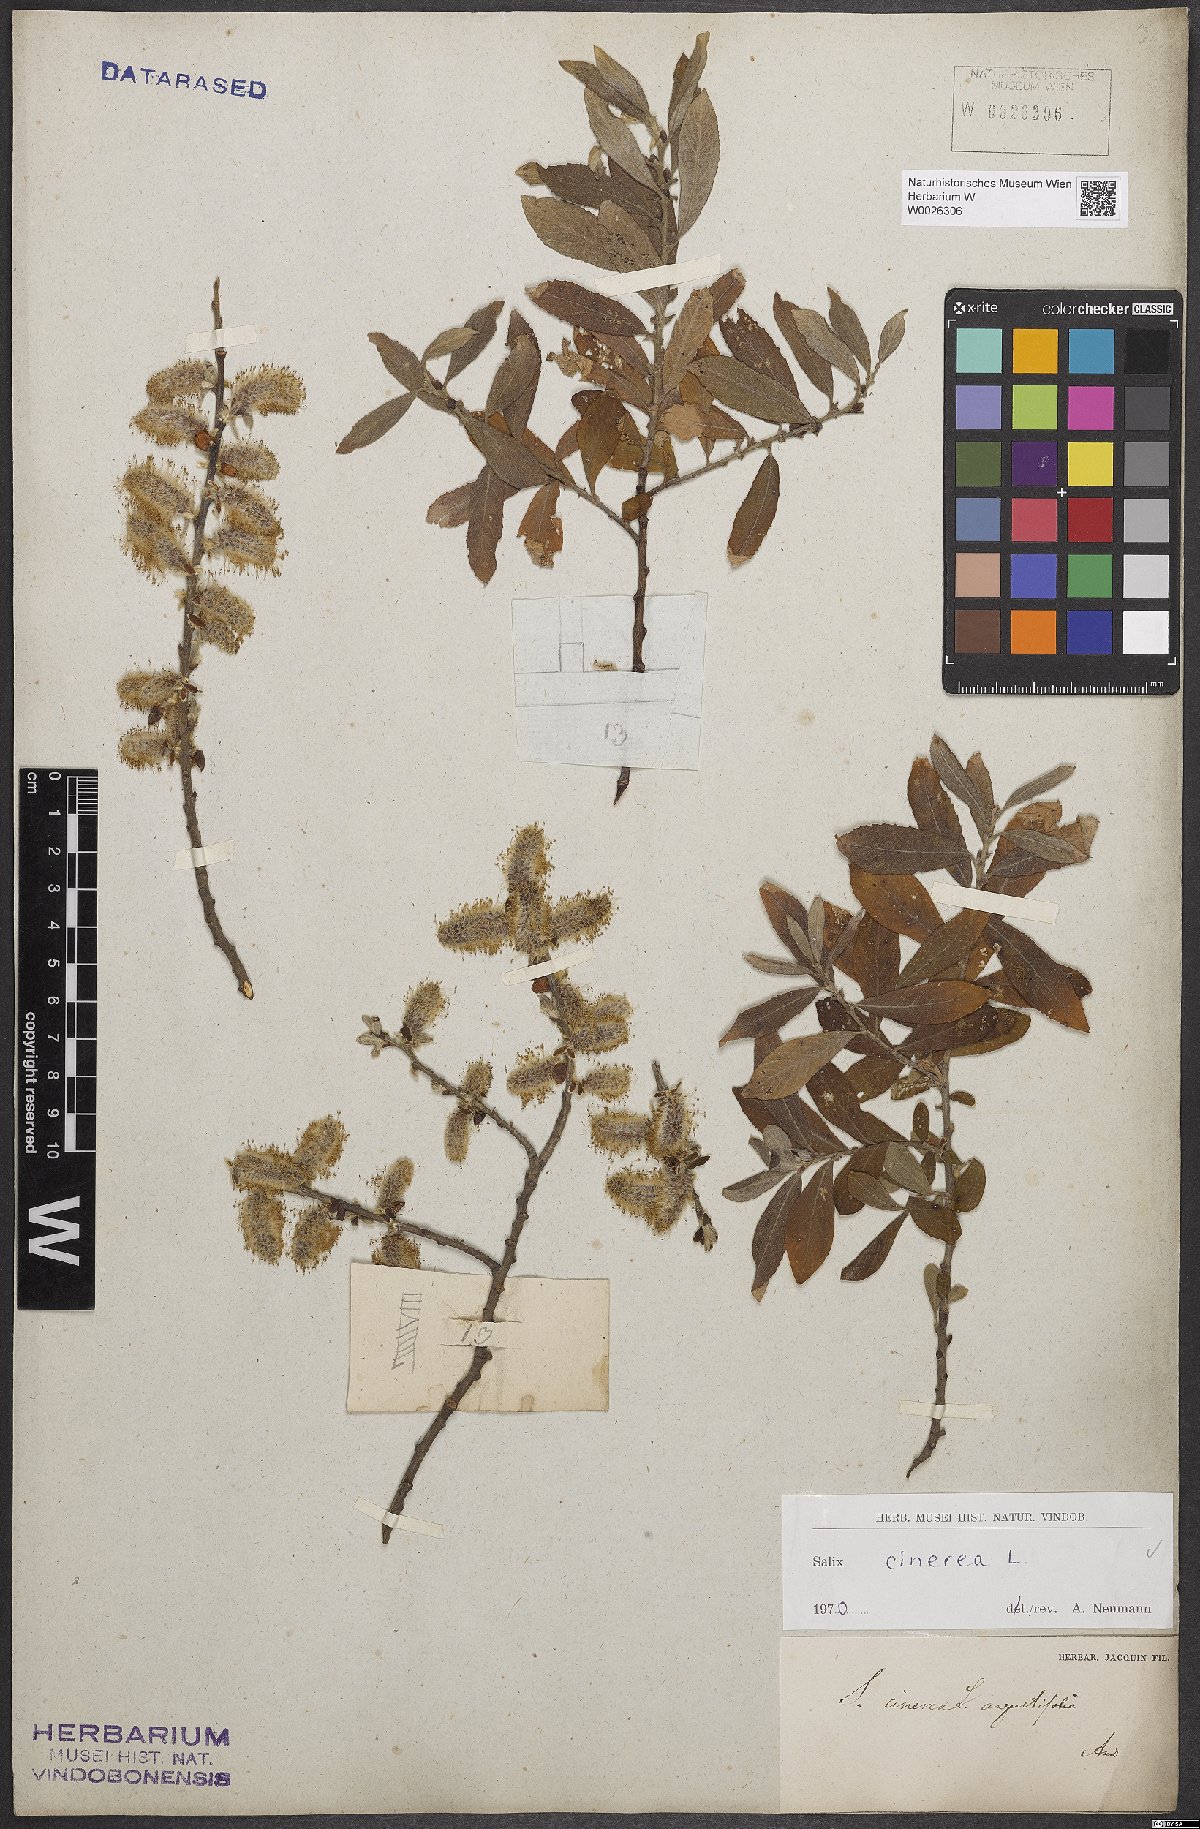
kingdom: Plantae
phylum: Tracheophyta
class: Magnoliopsida
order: Malpighiales
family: Salicaceae
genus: Salix
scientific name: Salix cinerea
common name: Common sallow
